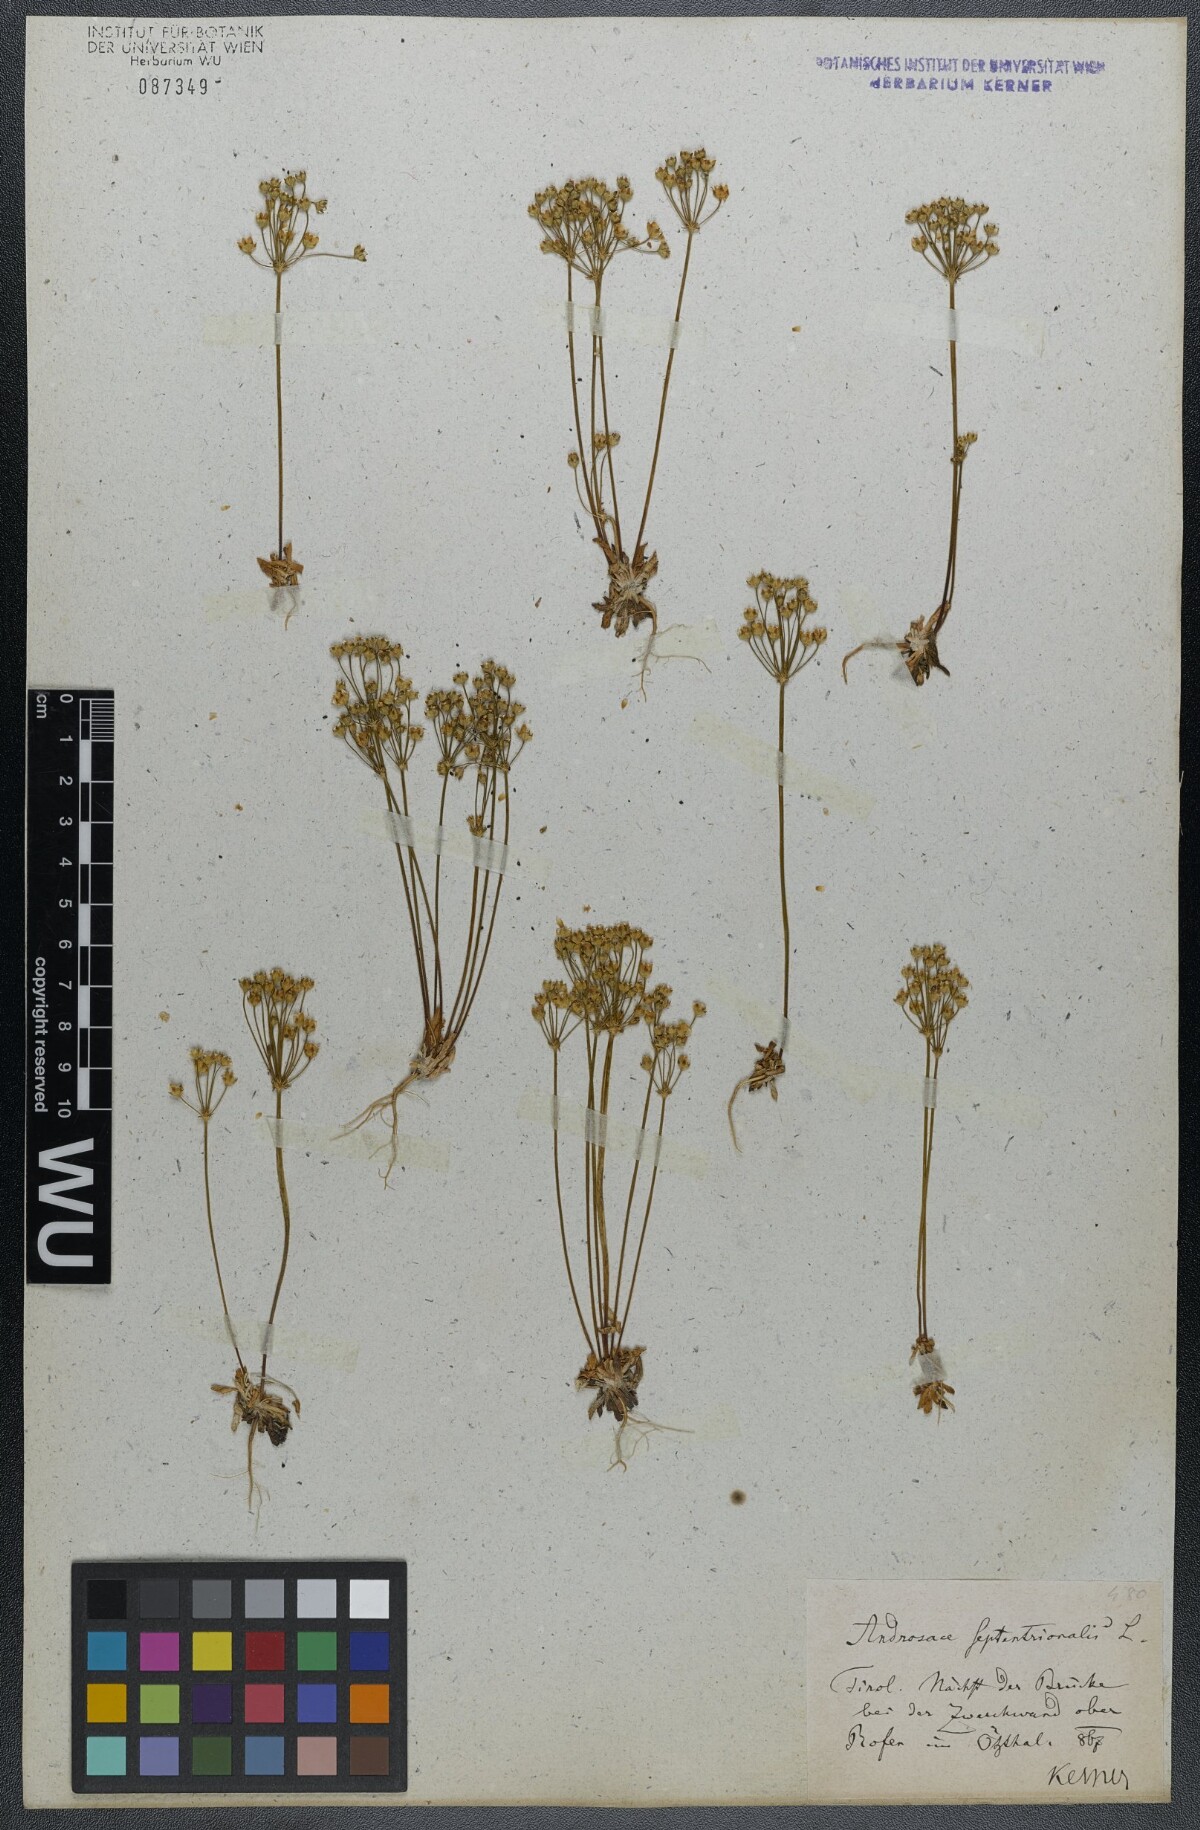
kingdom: Plantae
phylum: Tracheophyta
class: Magnoliopsida
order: Ericales
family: Primulaceae
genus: Androsace
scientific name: Androsace septentrionalis
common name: Hairy northern fairy-candelabra
